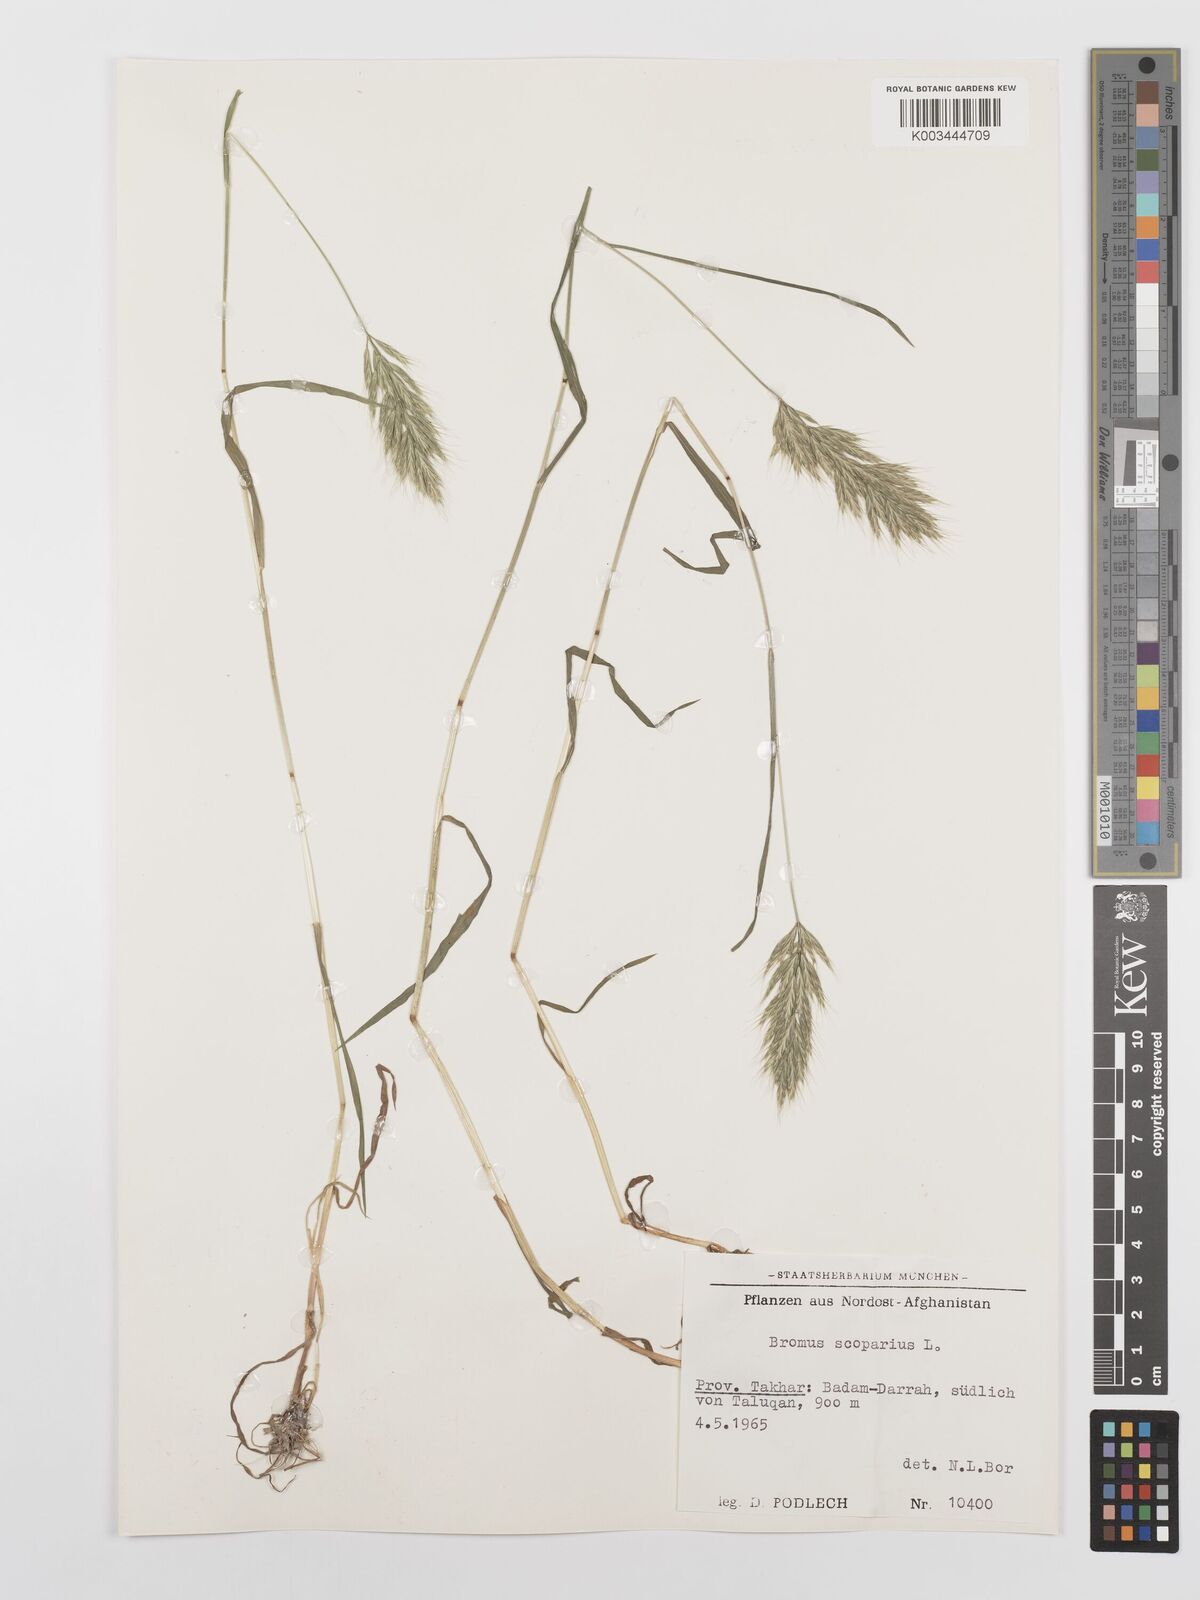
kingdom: Plantae
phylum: Tracheophyta
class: Liliopsida
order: Poales
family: Poaceae
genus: Bromus
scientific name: Bromus scoparius
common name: Broom brome
